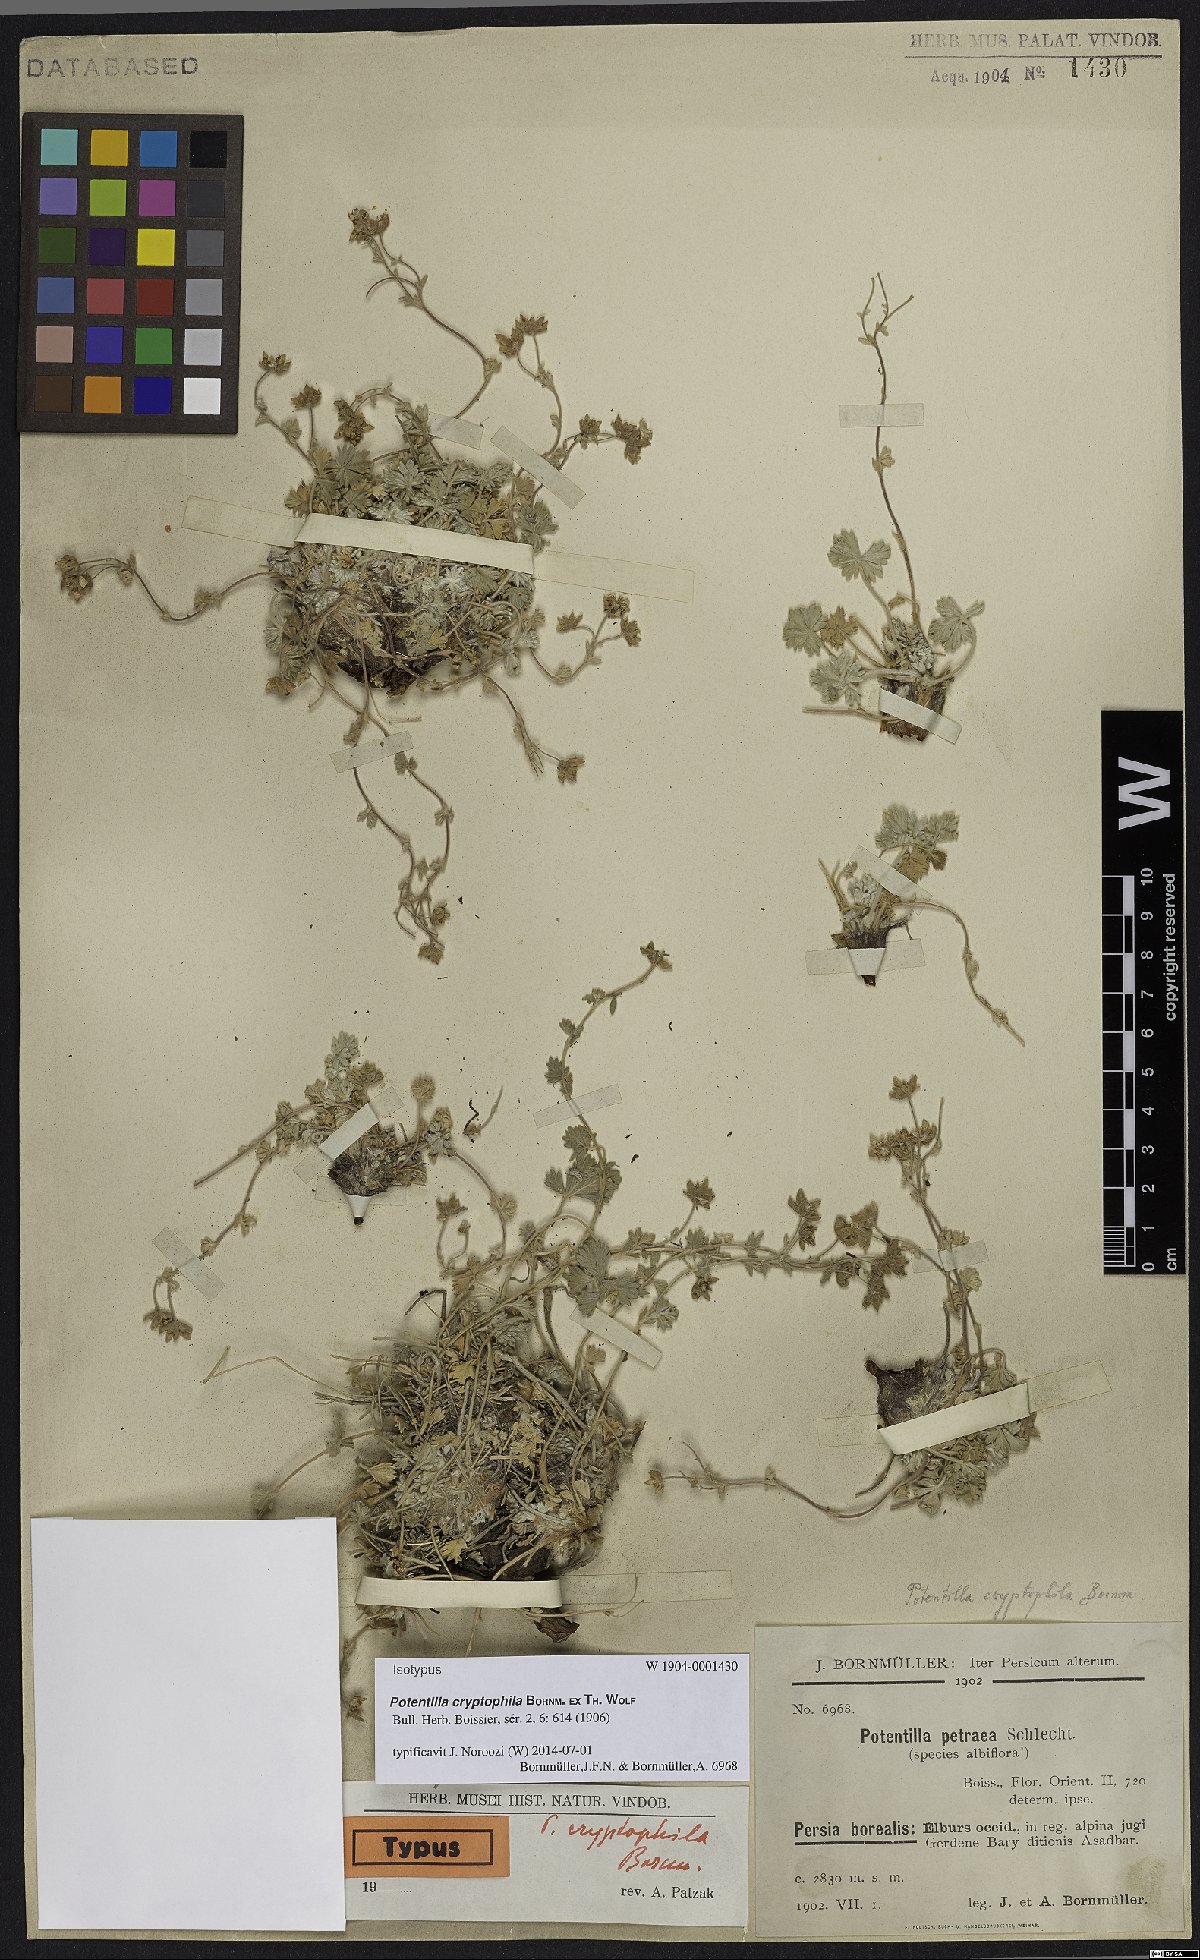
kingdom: Plantae
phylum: Tracheophyta
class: Magnoliopsida
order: Rosales
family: Rosaceae
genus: Potentilla
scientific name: Potentilla cryptophila
